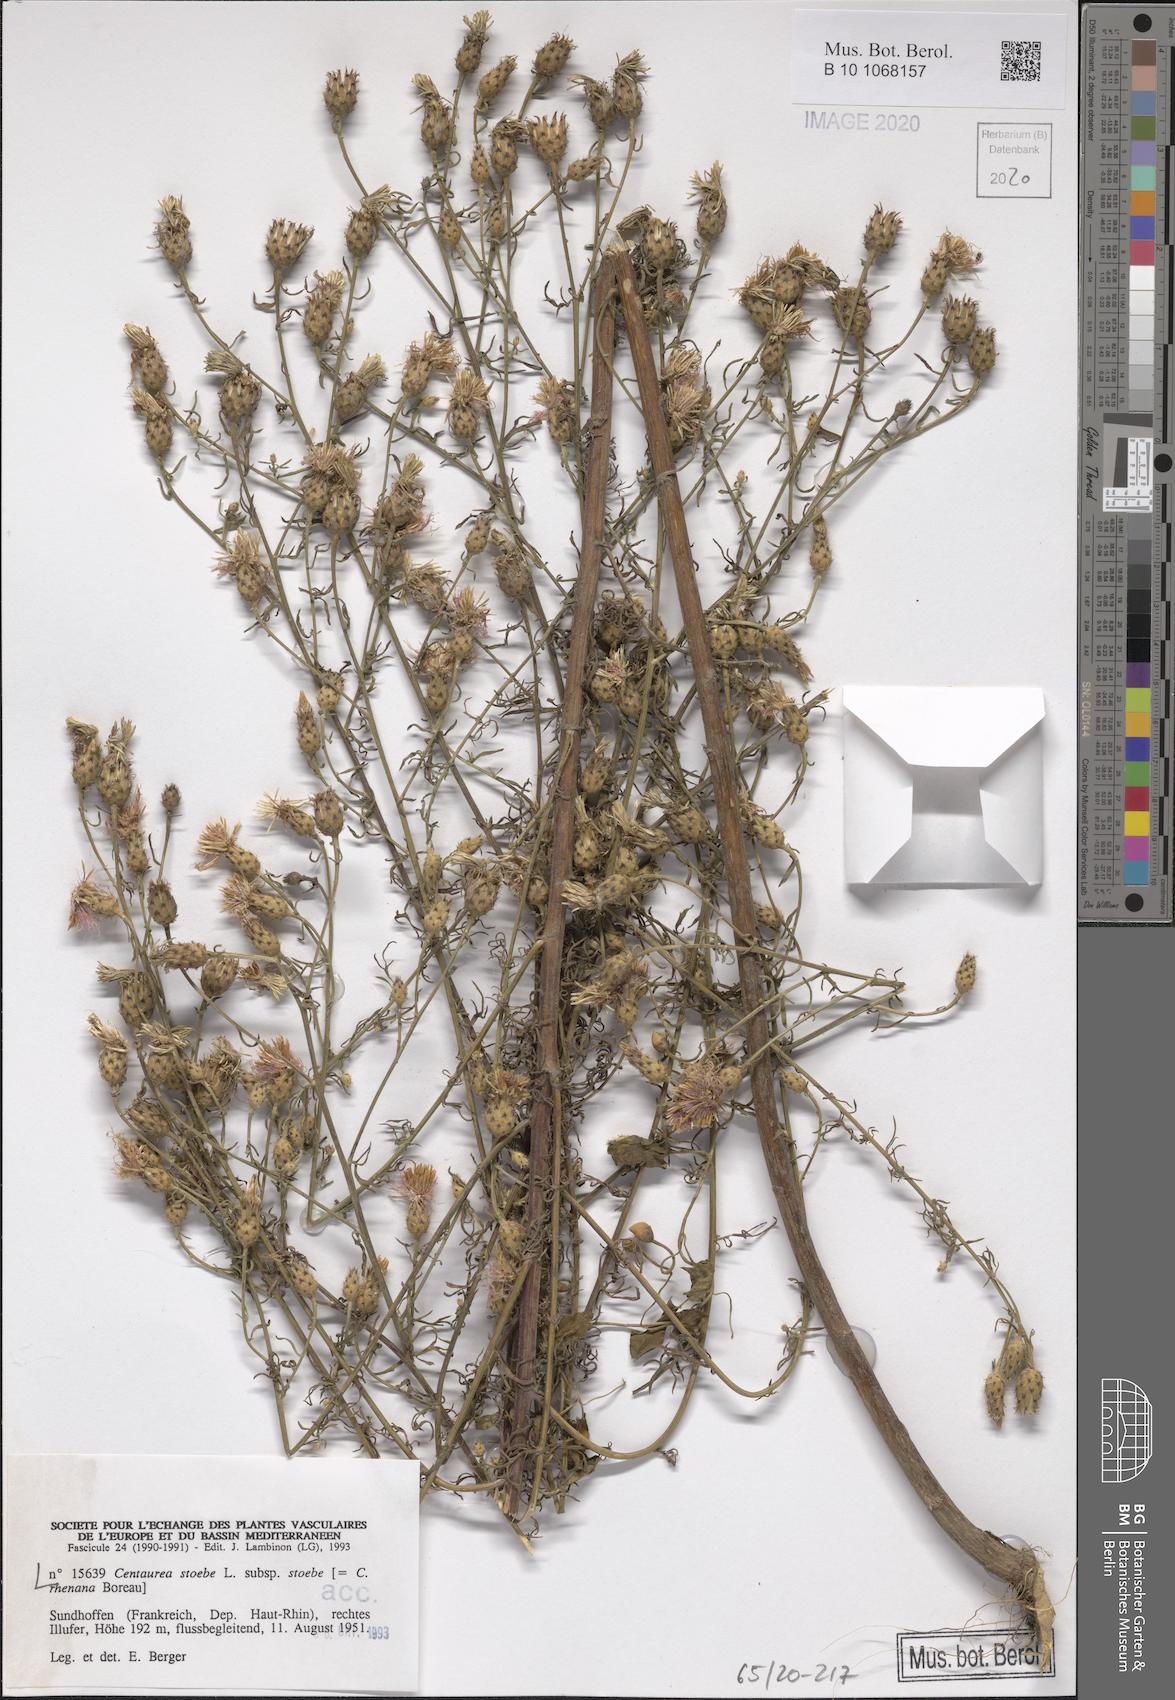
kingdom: Plantae
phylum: Tracheophyta
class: Magnoliopsida
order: Asterales
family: Asteraceae
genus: Centaurea
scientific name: Centaurea stoebe
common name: Spotted knapweed
